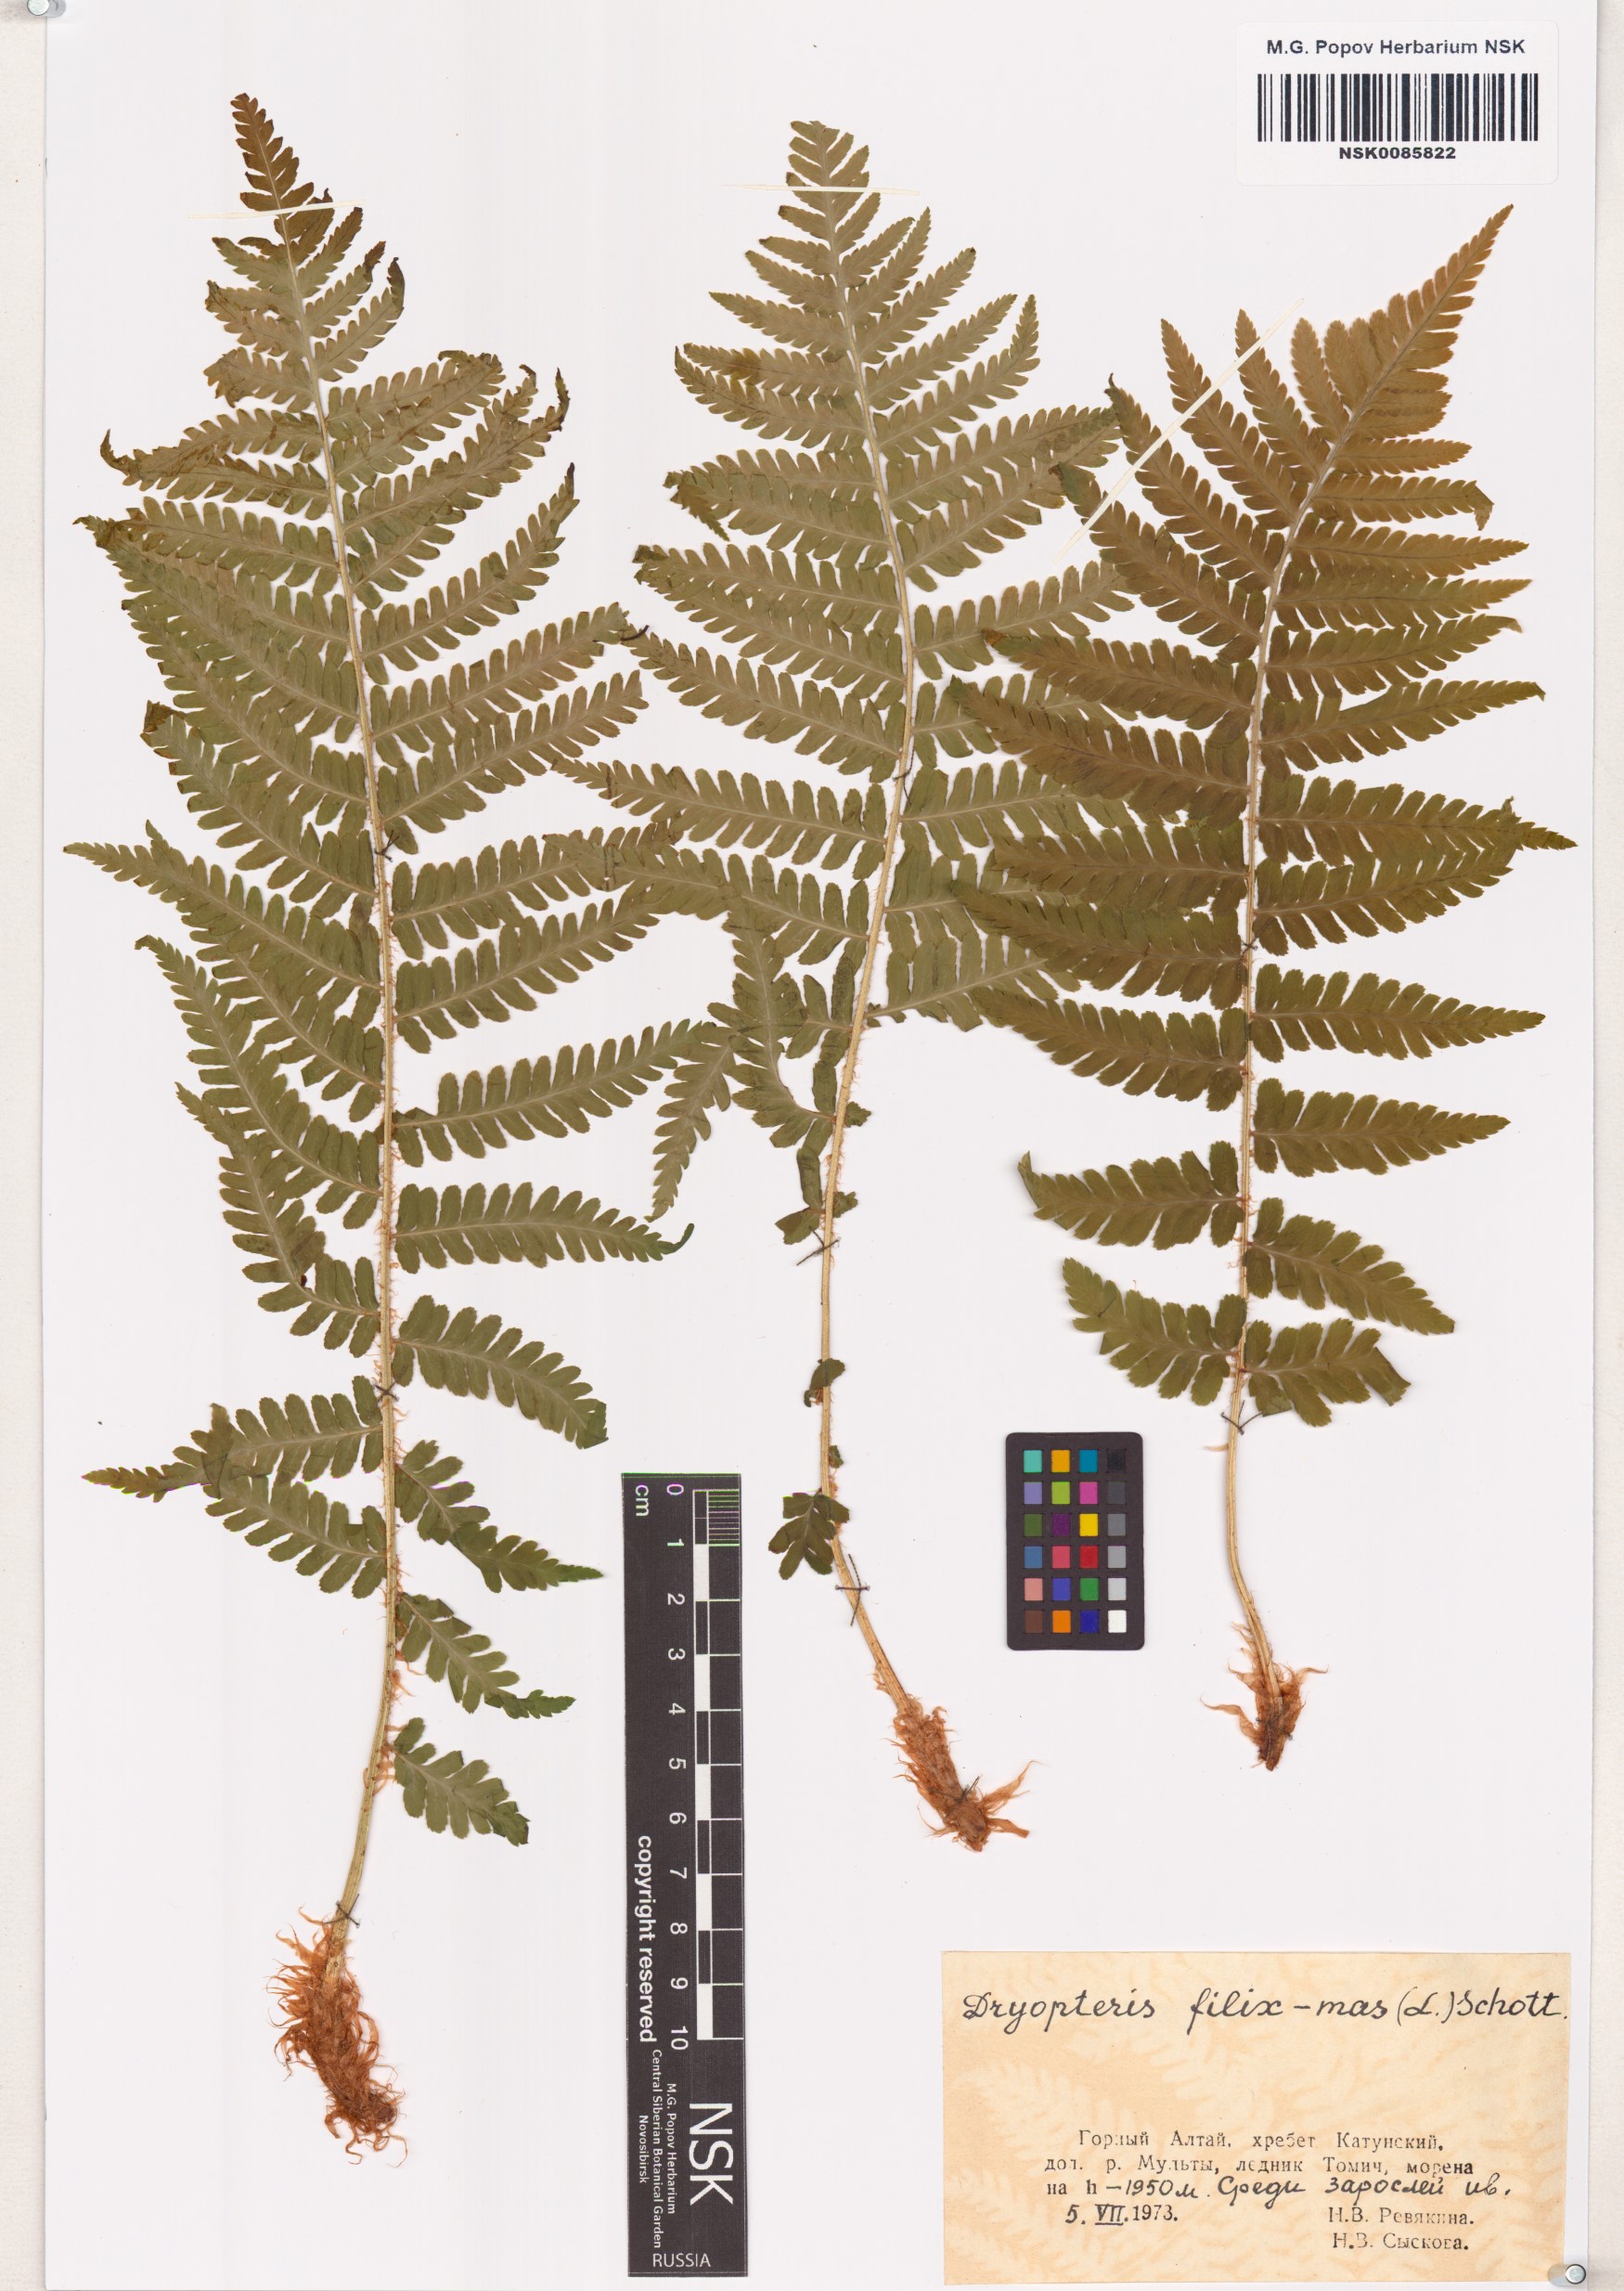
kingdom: Plantae
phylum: Tracheophyta
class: Polypodiopsida
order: Polypodiales
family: Dryopteridaceae
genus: Dryopteris
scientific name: Dryopteris filix-mas
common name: Male fern
